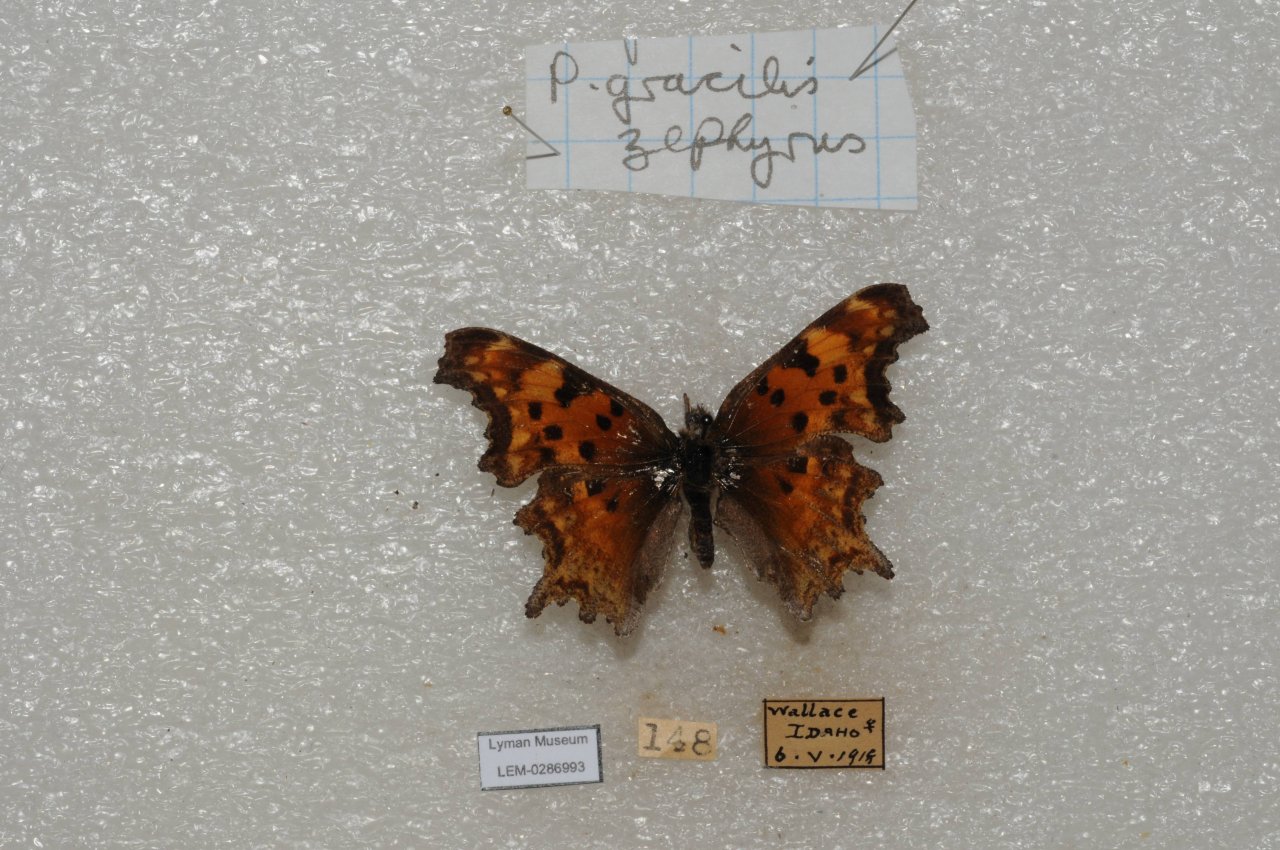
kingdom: Animalia
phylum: Arthropoda
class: Insecta
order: Lepidoptera
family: Nymphalidae
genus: Polygonia
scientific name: Polygonia gracilis
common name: Hoary Comma
